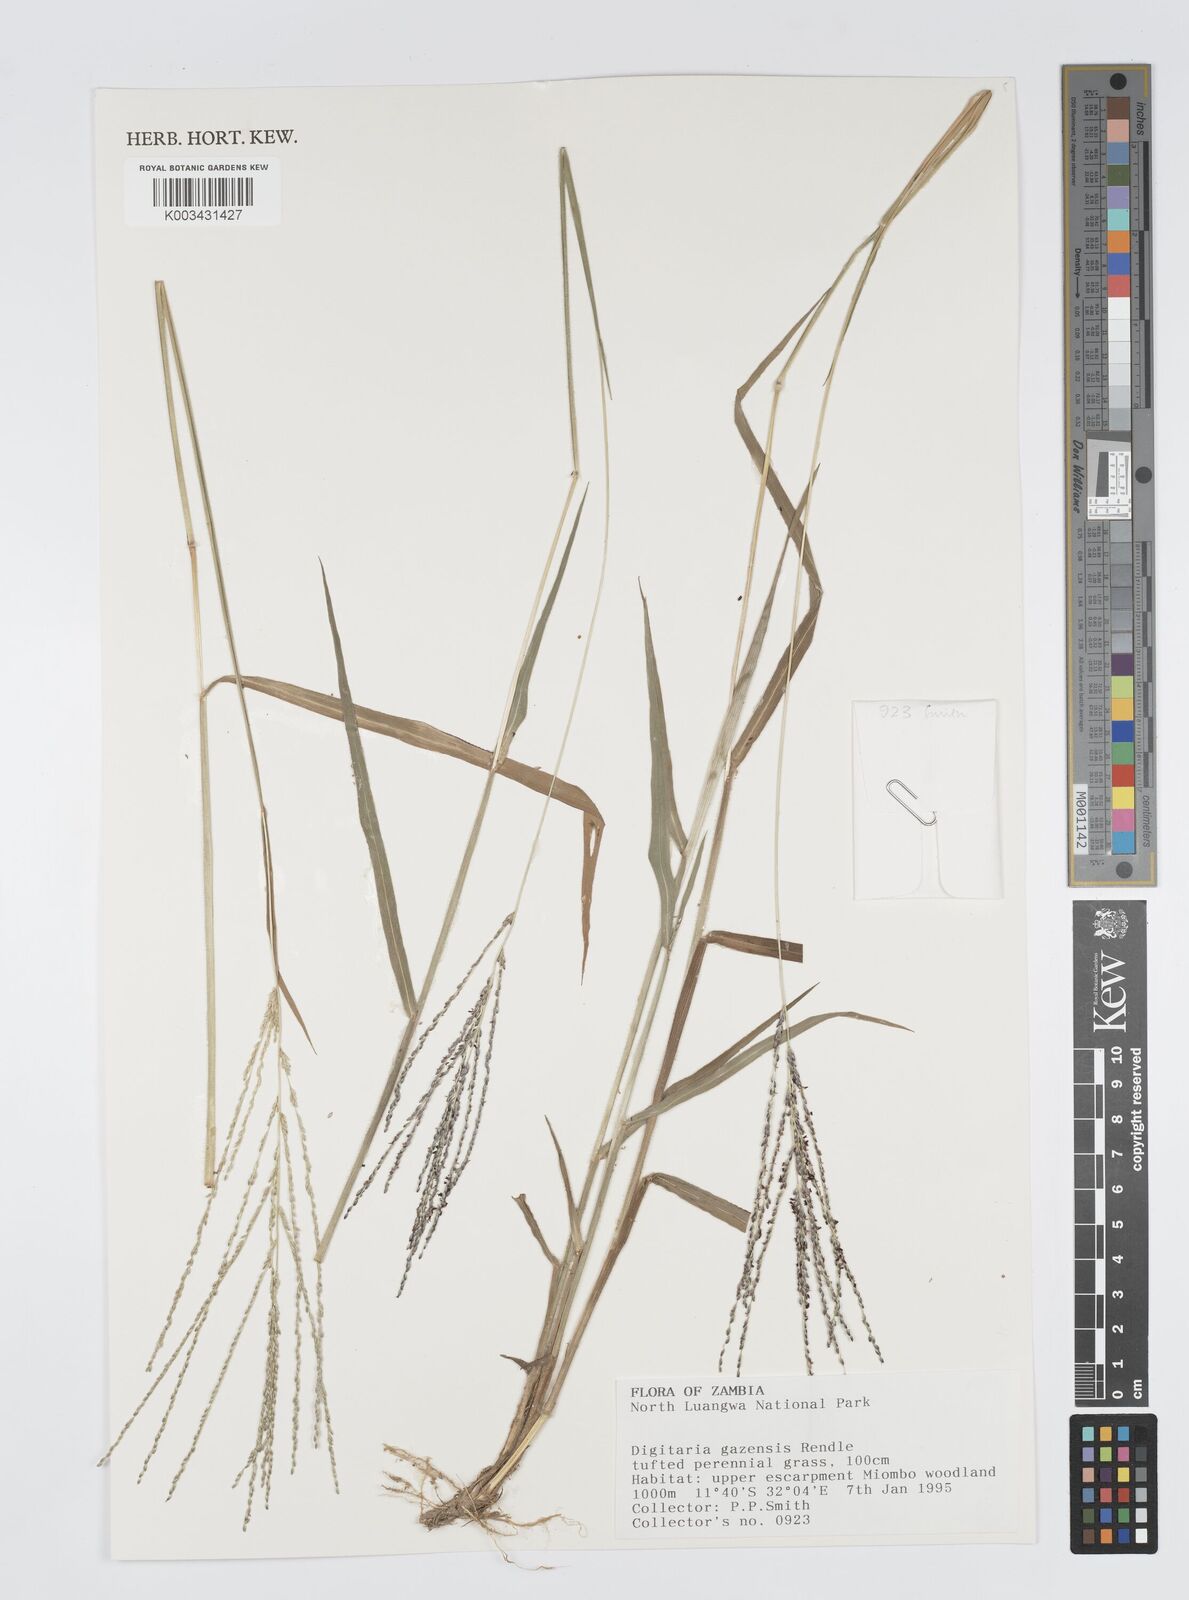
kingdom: Plantae
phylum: Tracheophyta
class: Liliopsida
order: Poales
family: Poaceae
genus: Digitaria
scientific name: Digitaria gazensis
